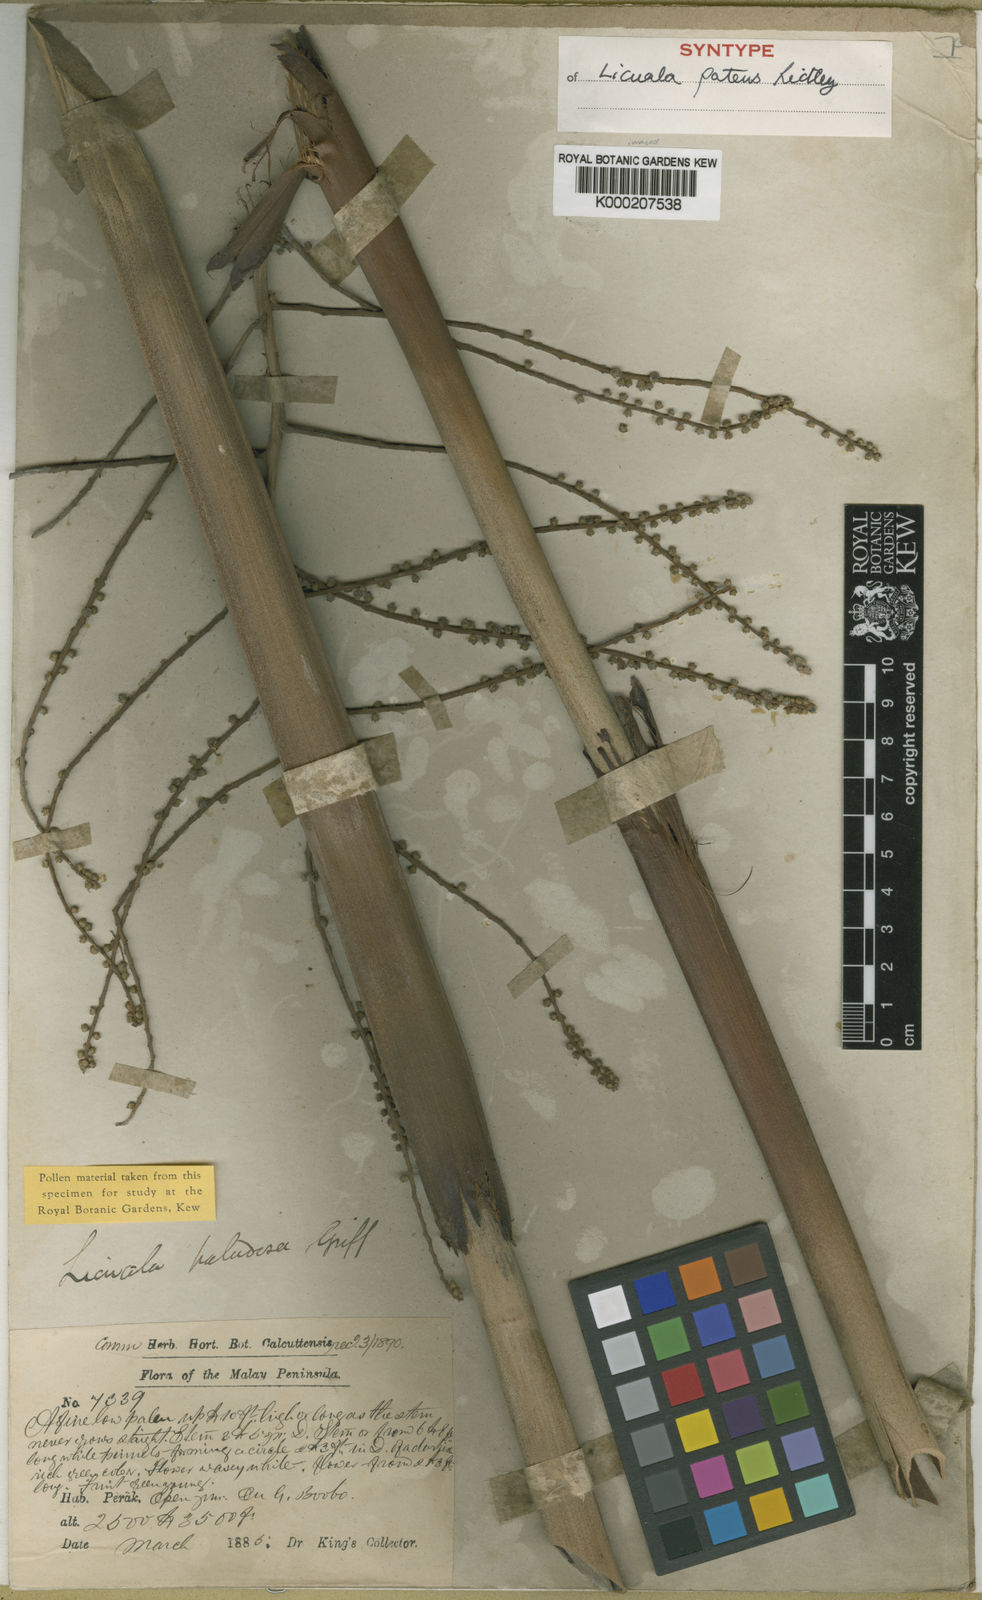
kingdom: Plantae
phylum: Tracheophyta
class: Liliopsida
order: Arecales
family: Arecaceae
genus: Licuala
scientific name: Licuala patens
